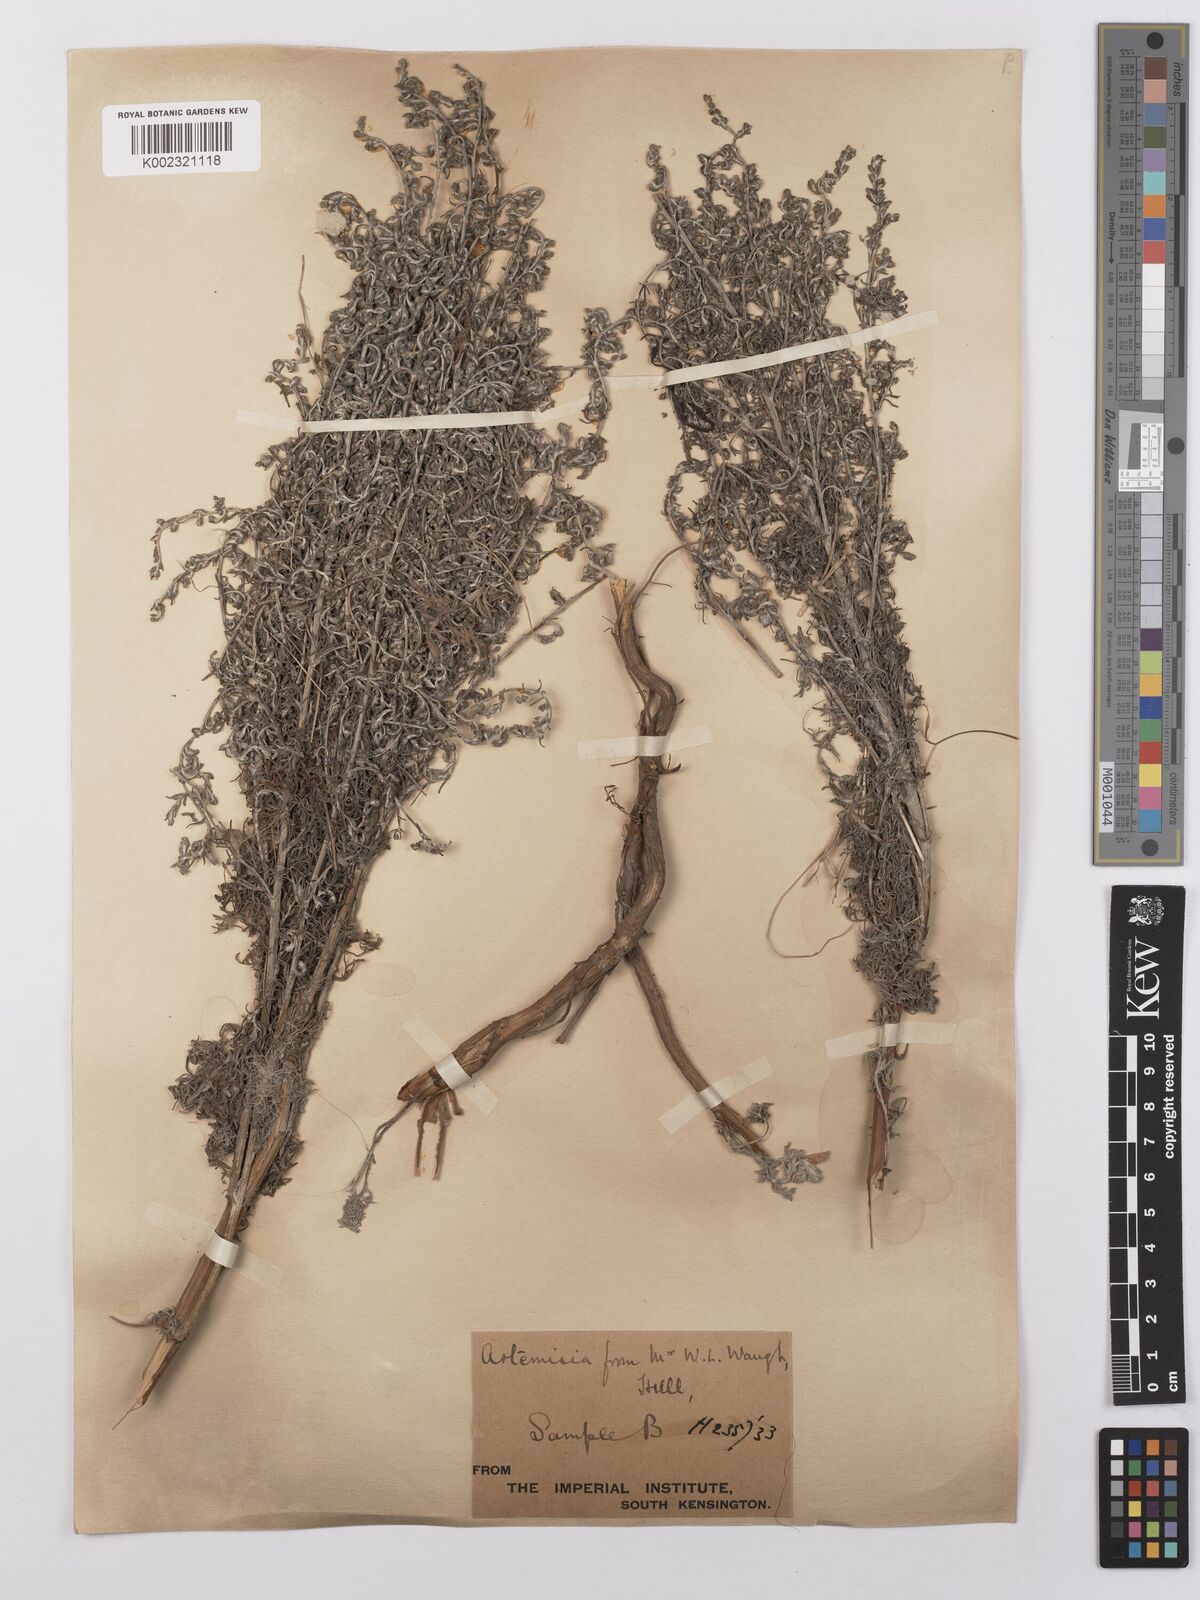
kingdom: Plantae
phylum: Tracheophyta
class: Magnoliopsida
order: Asterales
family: Asteraceae
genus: Artemisia
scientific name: Artemisia maritima
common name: Wormseed
